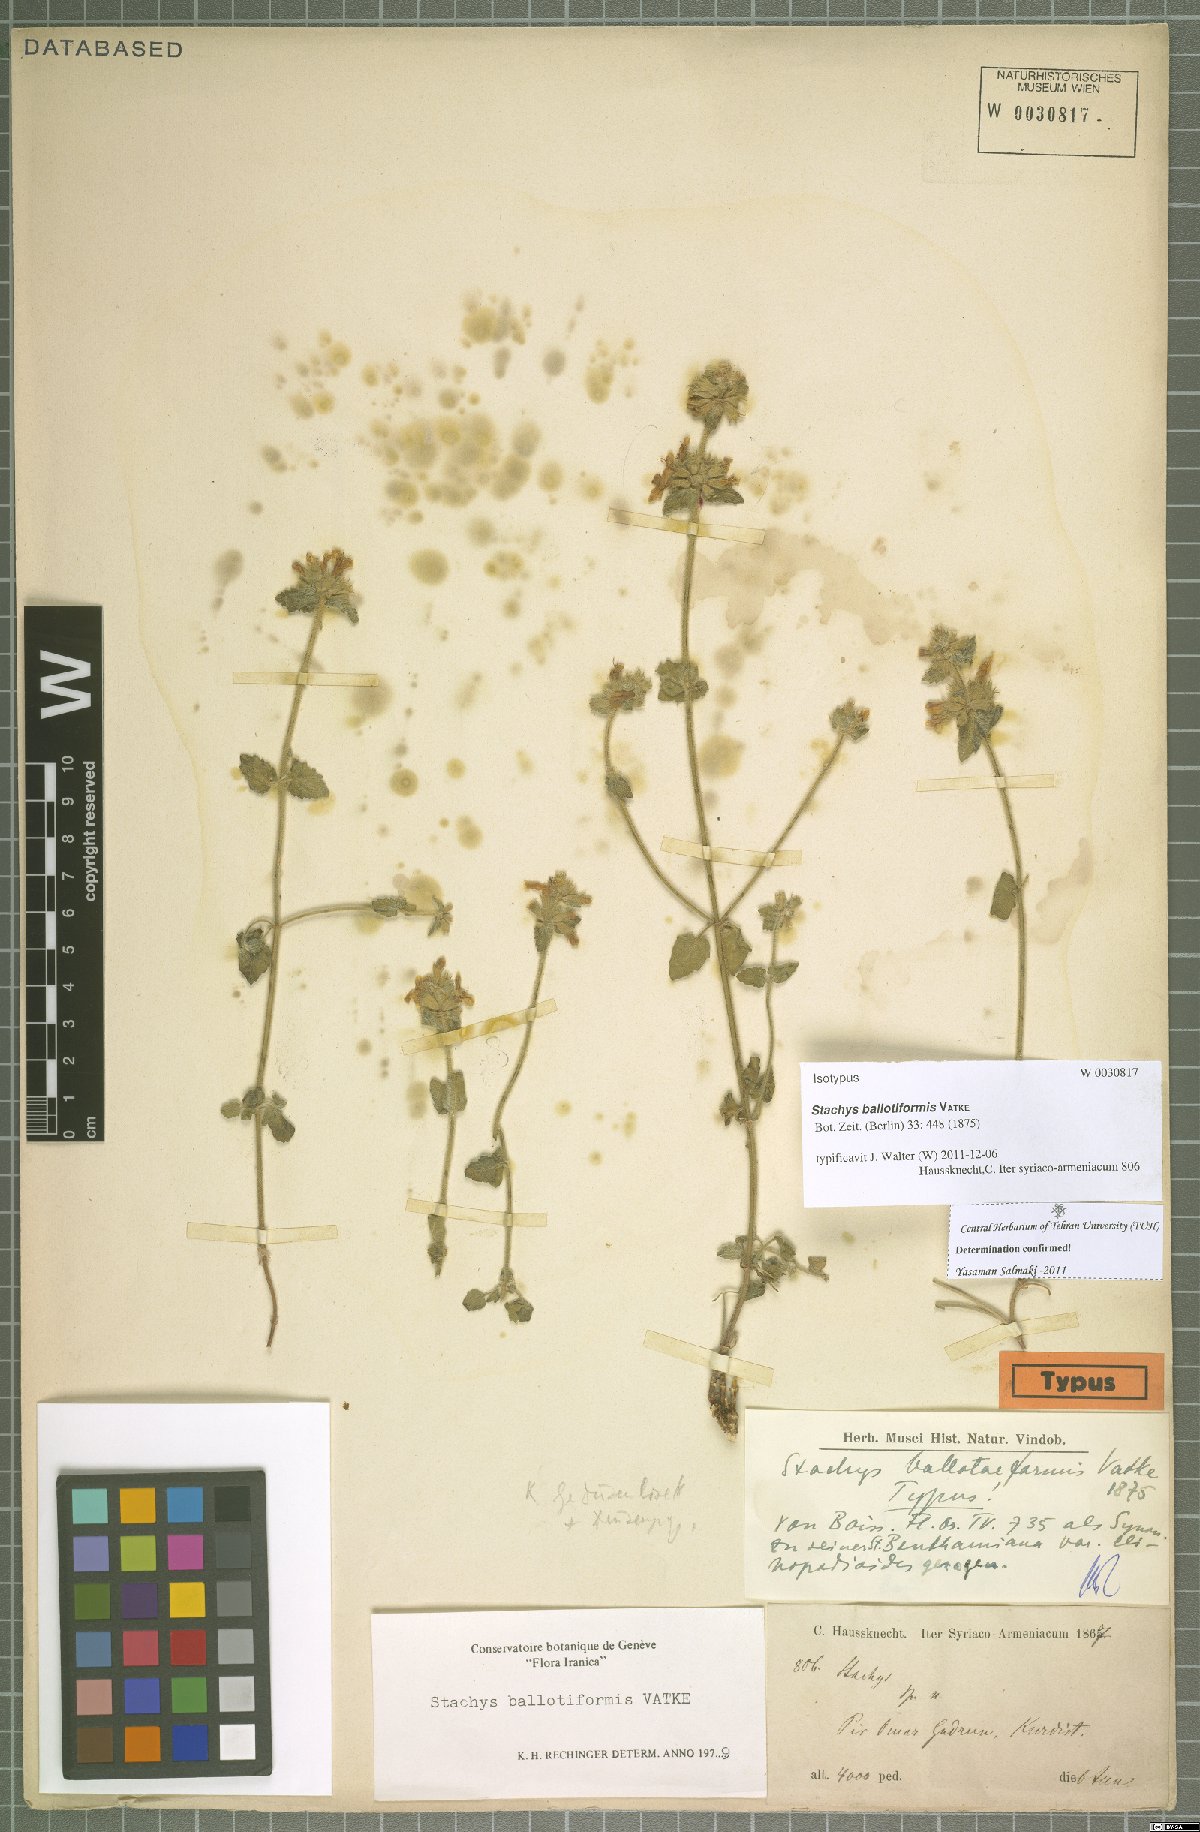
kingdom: Plantae
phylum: Tracheophyta
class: Magnoliopsida
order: Lamiales
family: Lamiaceae
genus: Stachys
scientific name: Stachys kurdica
